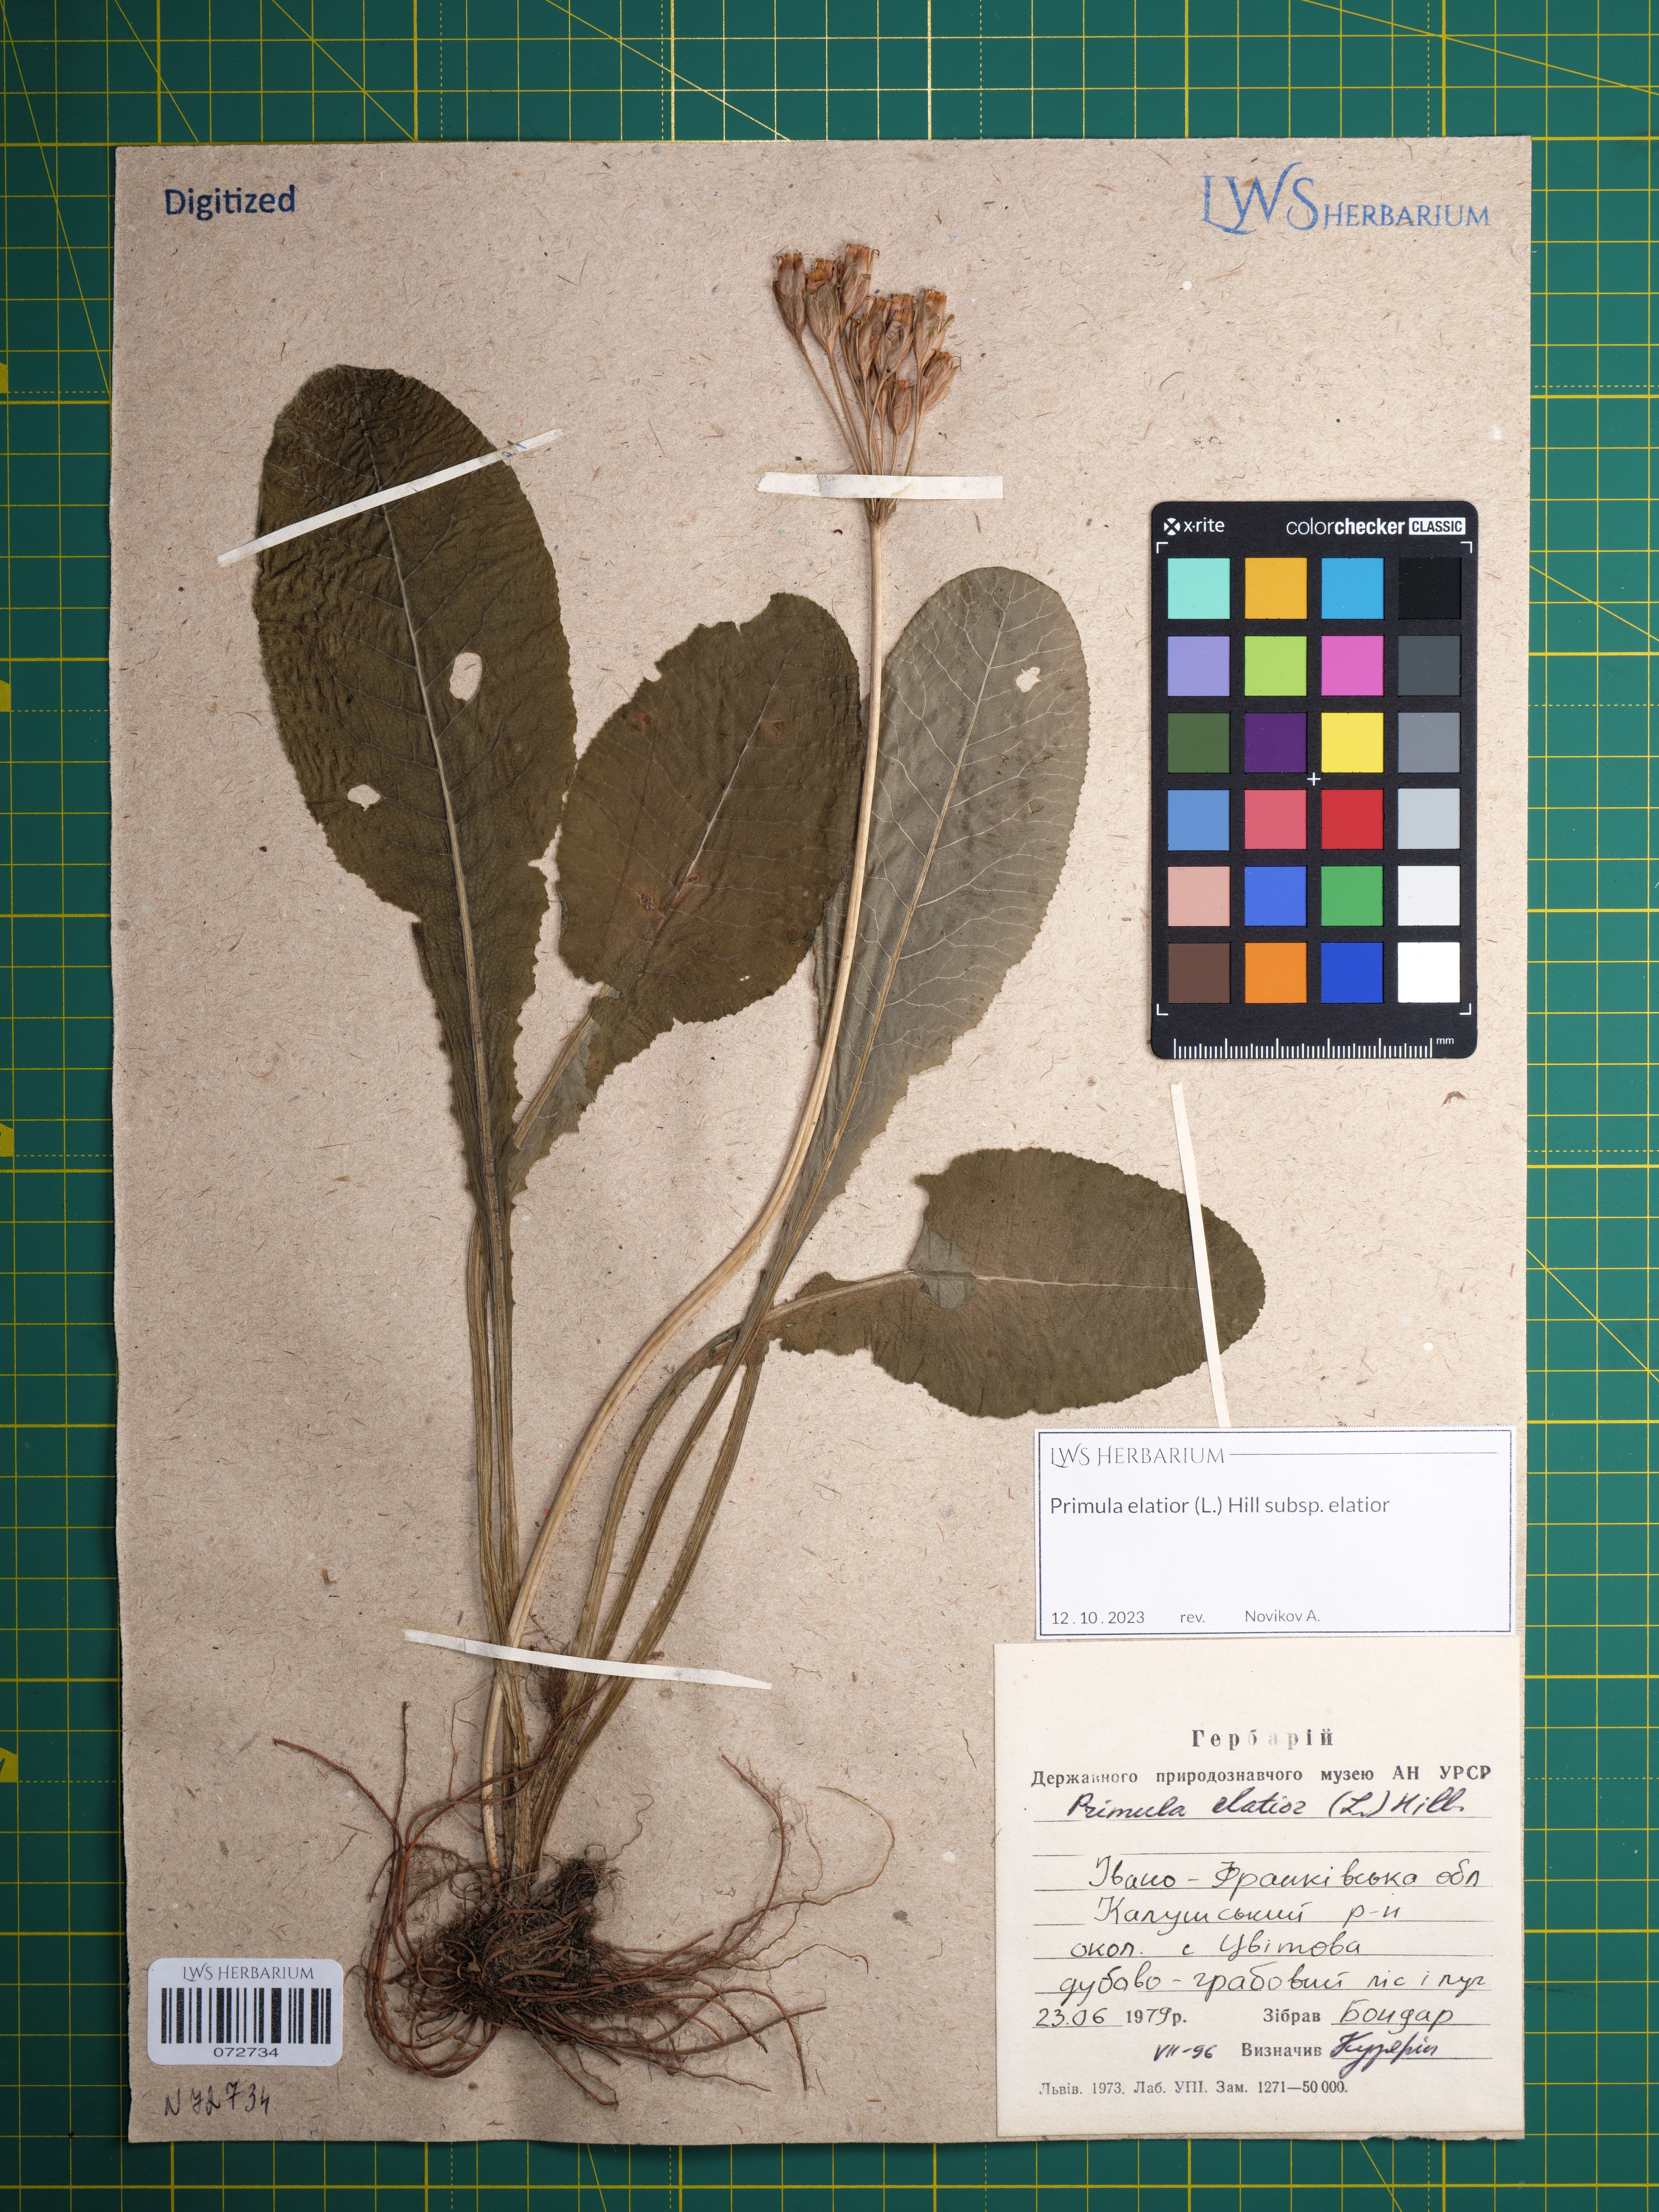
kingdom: Plantae
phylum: Tracheophyta
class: Magnoliopsida
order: Ericales
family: Primulaceae
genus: Primula
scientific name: Primula elatior
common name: Oxlip
